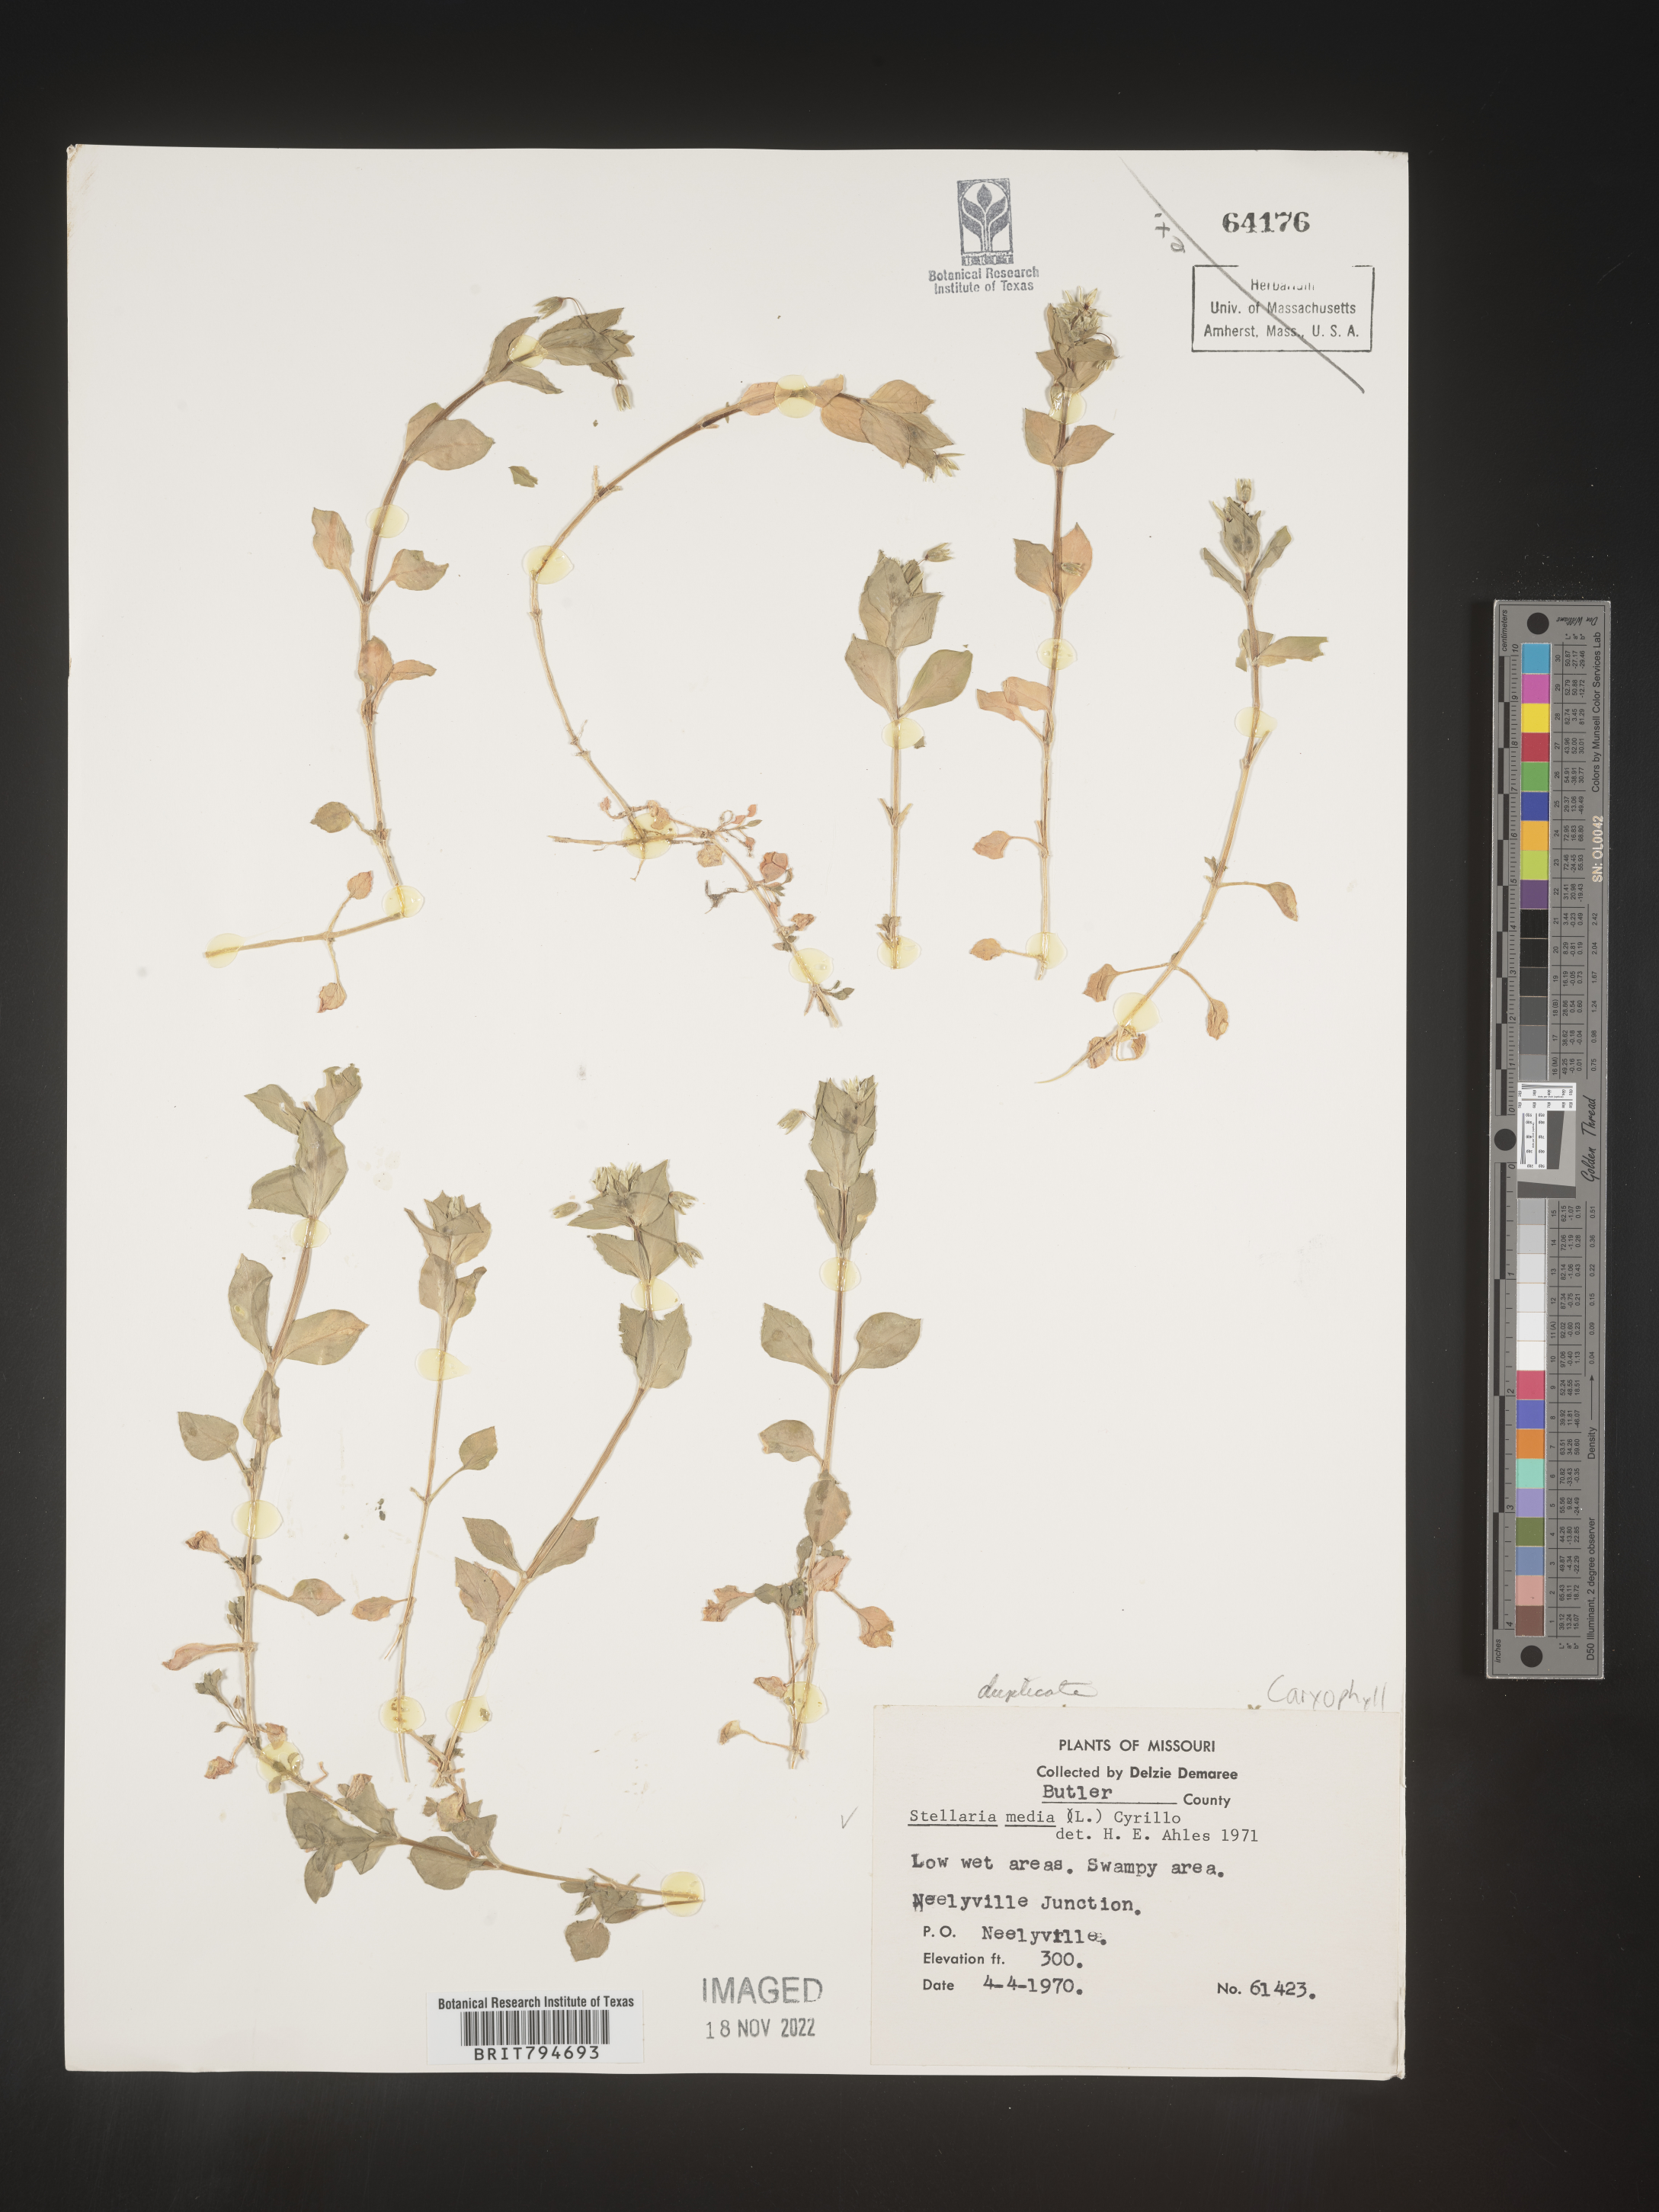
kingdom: Plantae
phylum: Tracheophyta
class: Magnoliopsida
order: Caryophyllales
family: Caryophyllaceae
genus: Stellaria
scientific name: Stellaria media
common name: Common chickweed
